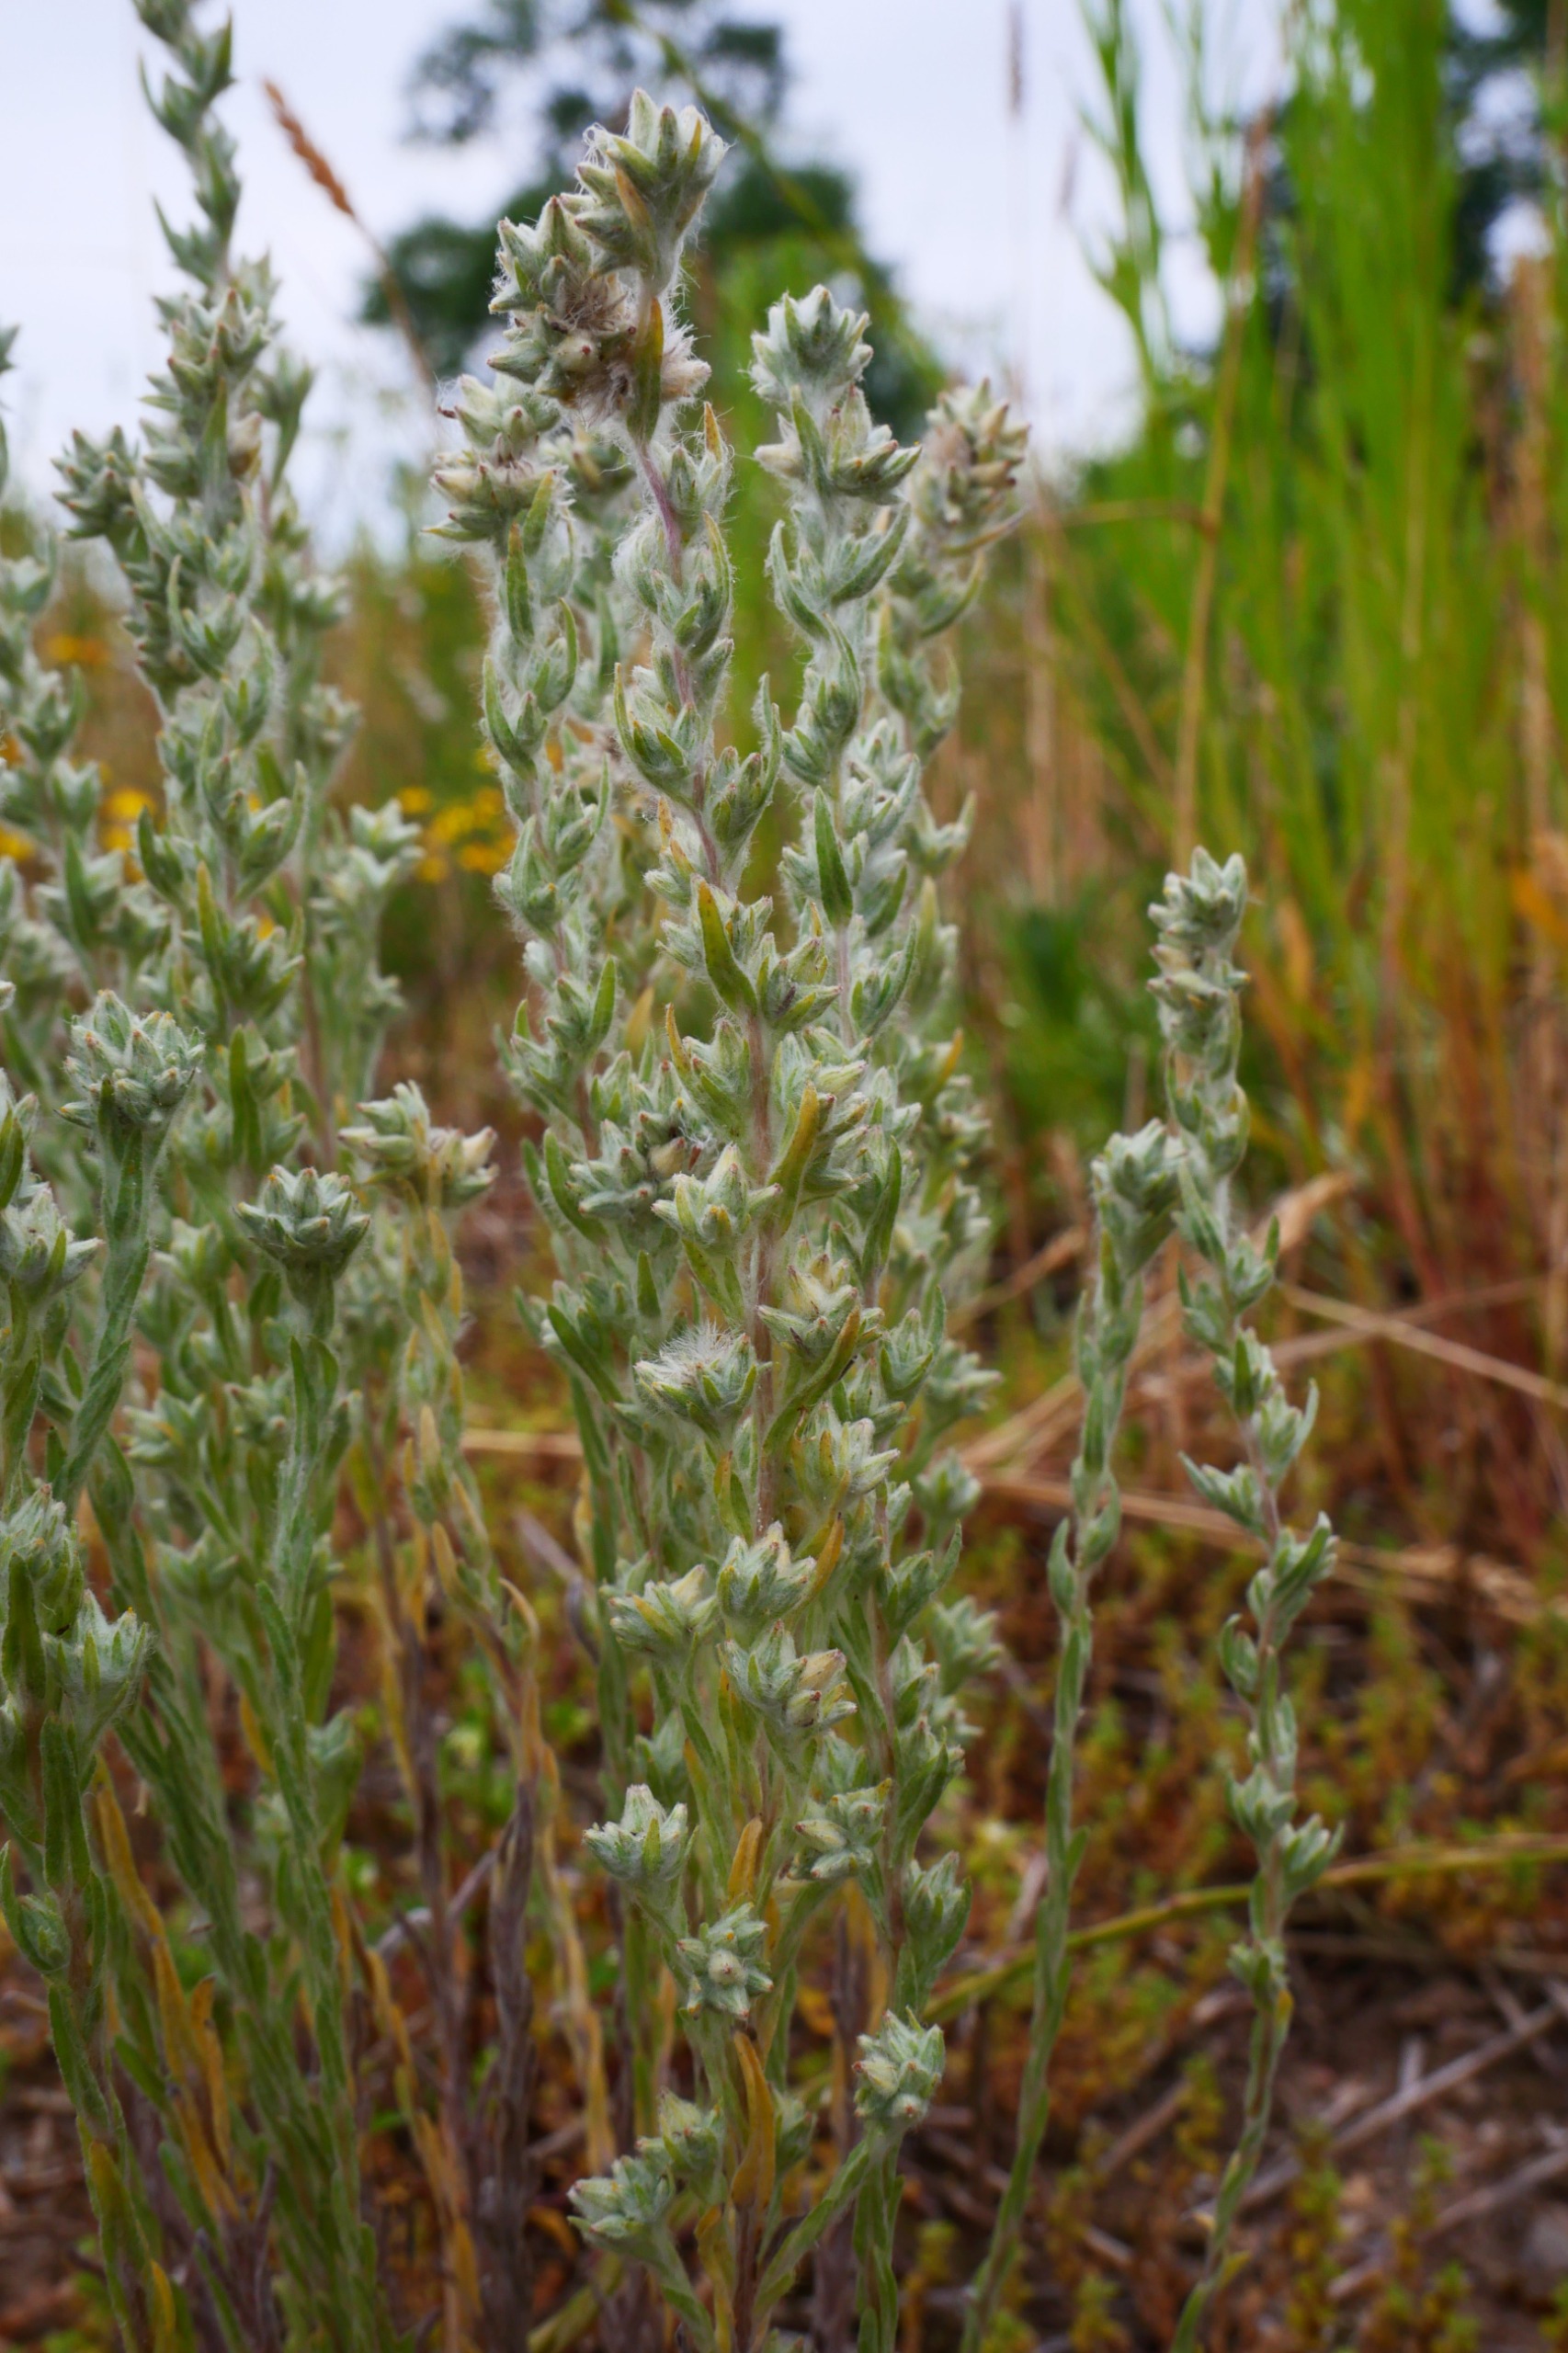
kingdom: Plantae
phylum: Tracheophyta
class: Magnoliopsida
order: Asterales
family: Asteraceae
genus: Filago
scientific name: Filago arvensis
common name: Ager-museurt
